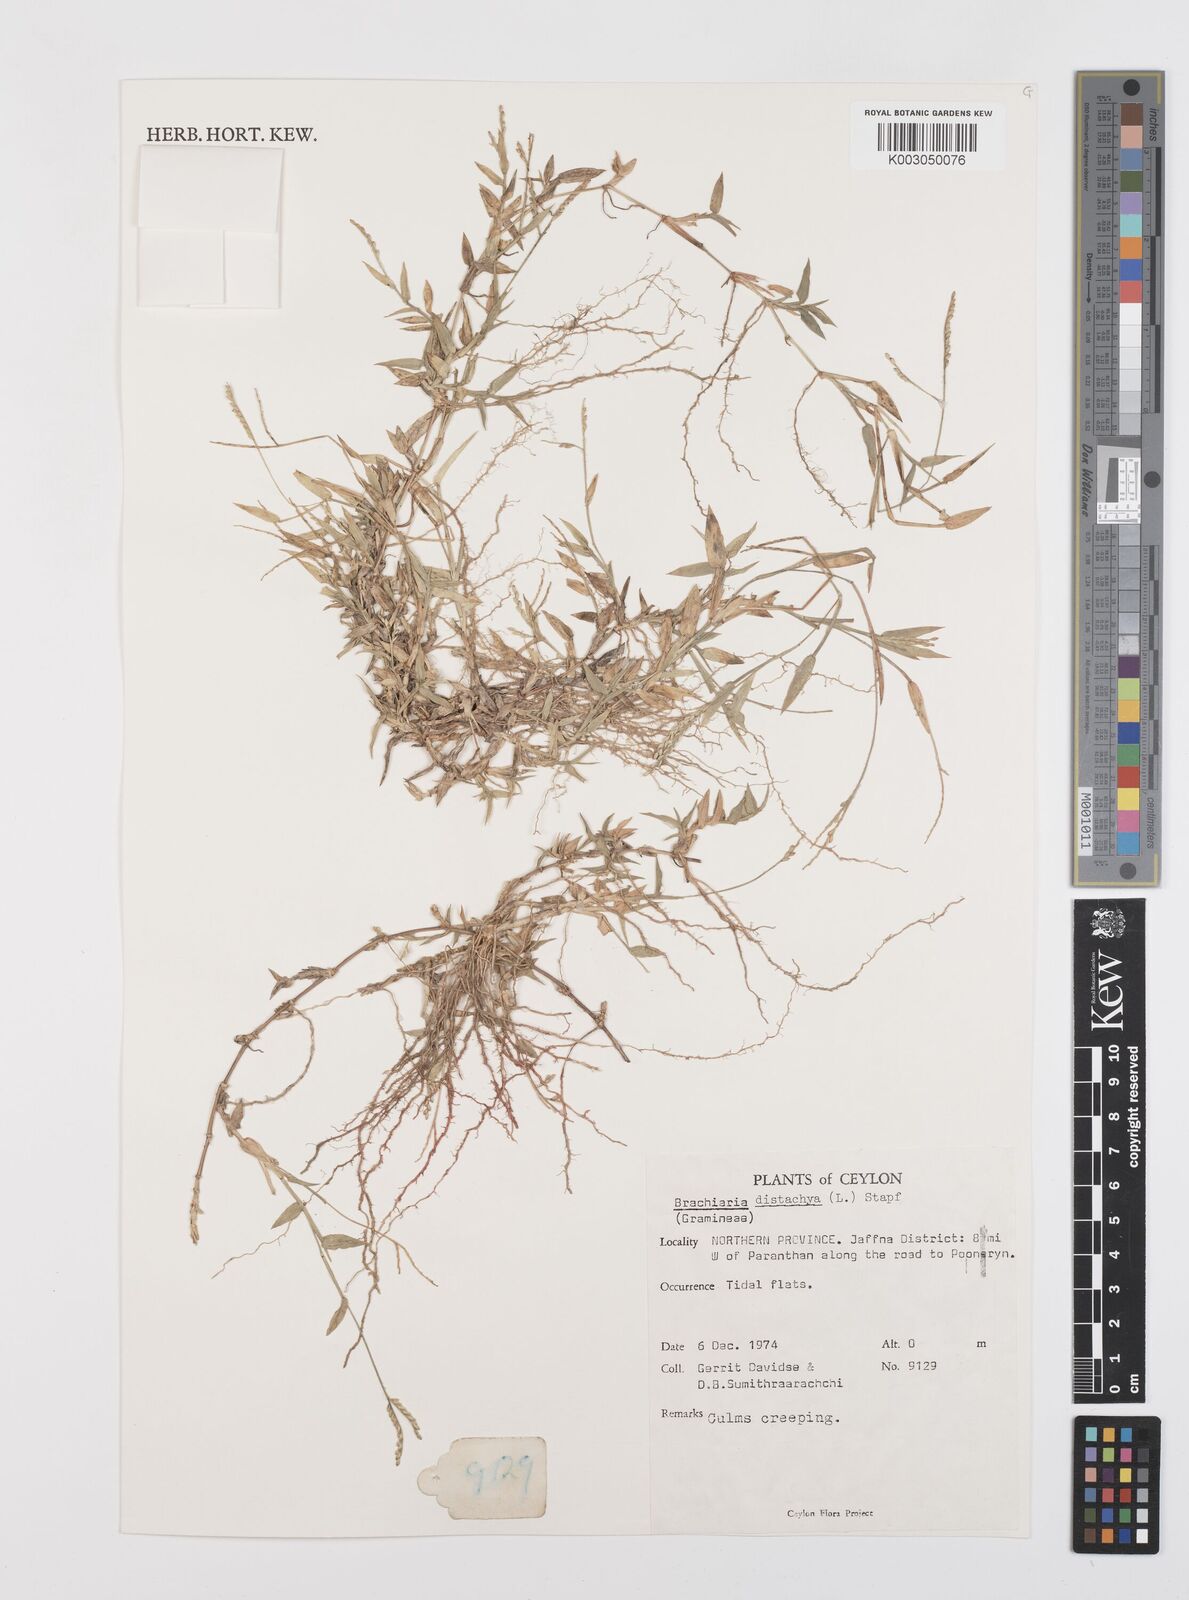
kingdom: Plantae
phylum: Tracheophyta
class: Liliopsida
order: Poales
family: Poaceae
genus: Urochloa
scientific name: Urochloa distachyos
